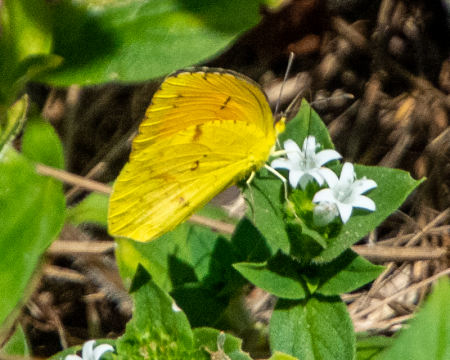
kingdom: Animalia
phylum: Arthropoda
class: Insecta
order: Lepidoptera
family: Pieridae
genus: Abaeis
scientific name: Abaeis nicippe
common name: Sleepy Orange
